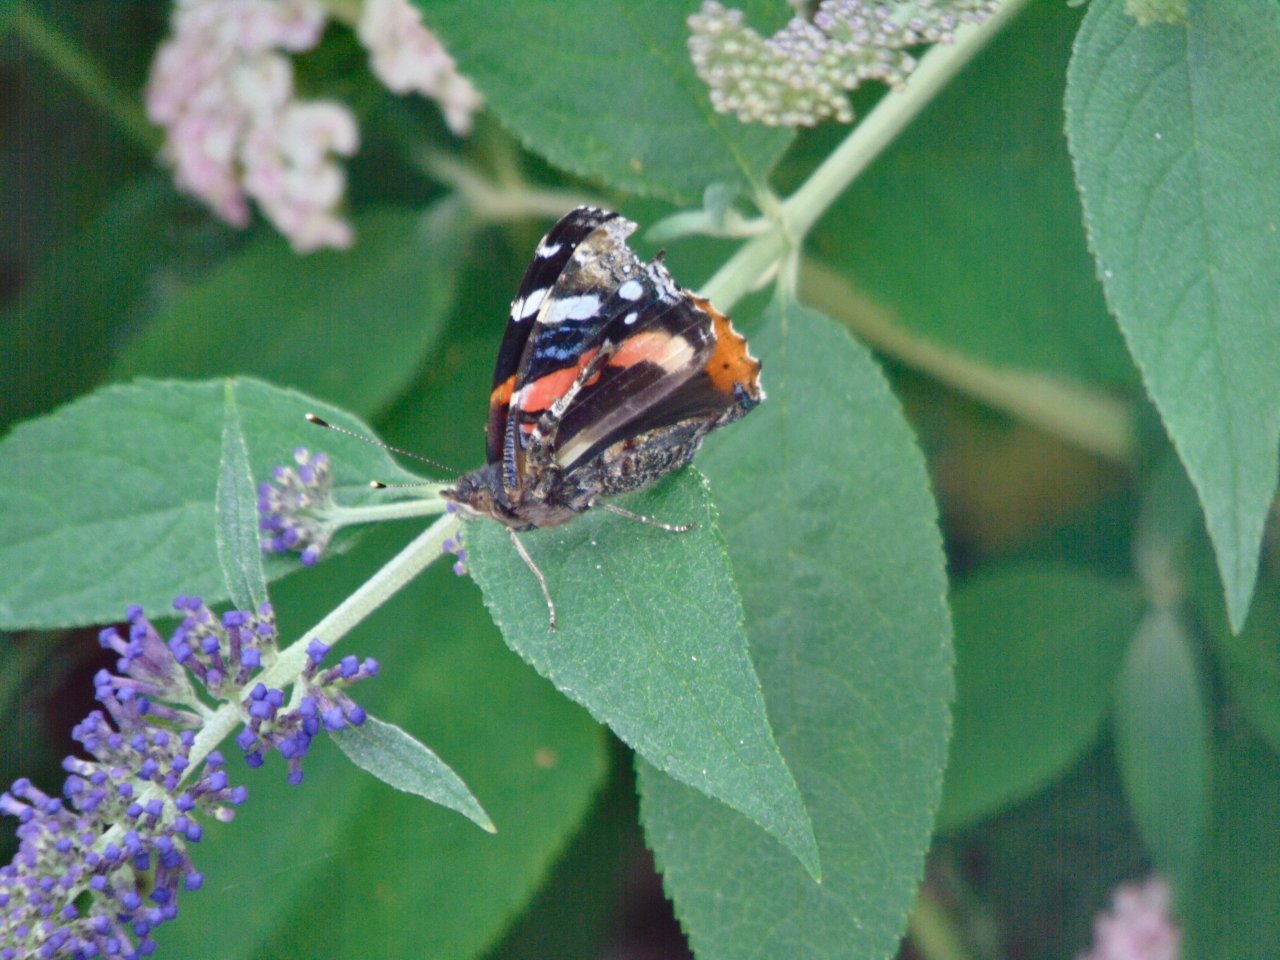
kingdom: Animalia
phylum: Arthropoda
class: Insecta
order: Lepidoptera
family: Nymphalidae
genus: Vanessa
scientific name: Vanessa atalanta
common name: Red Admiral
